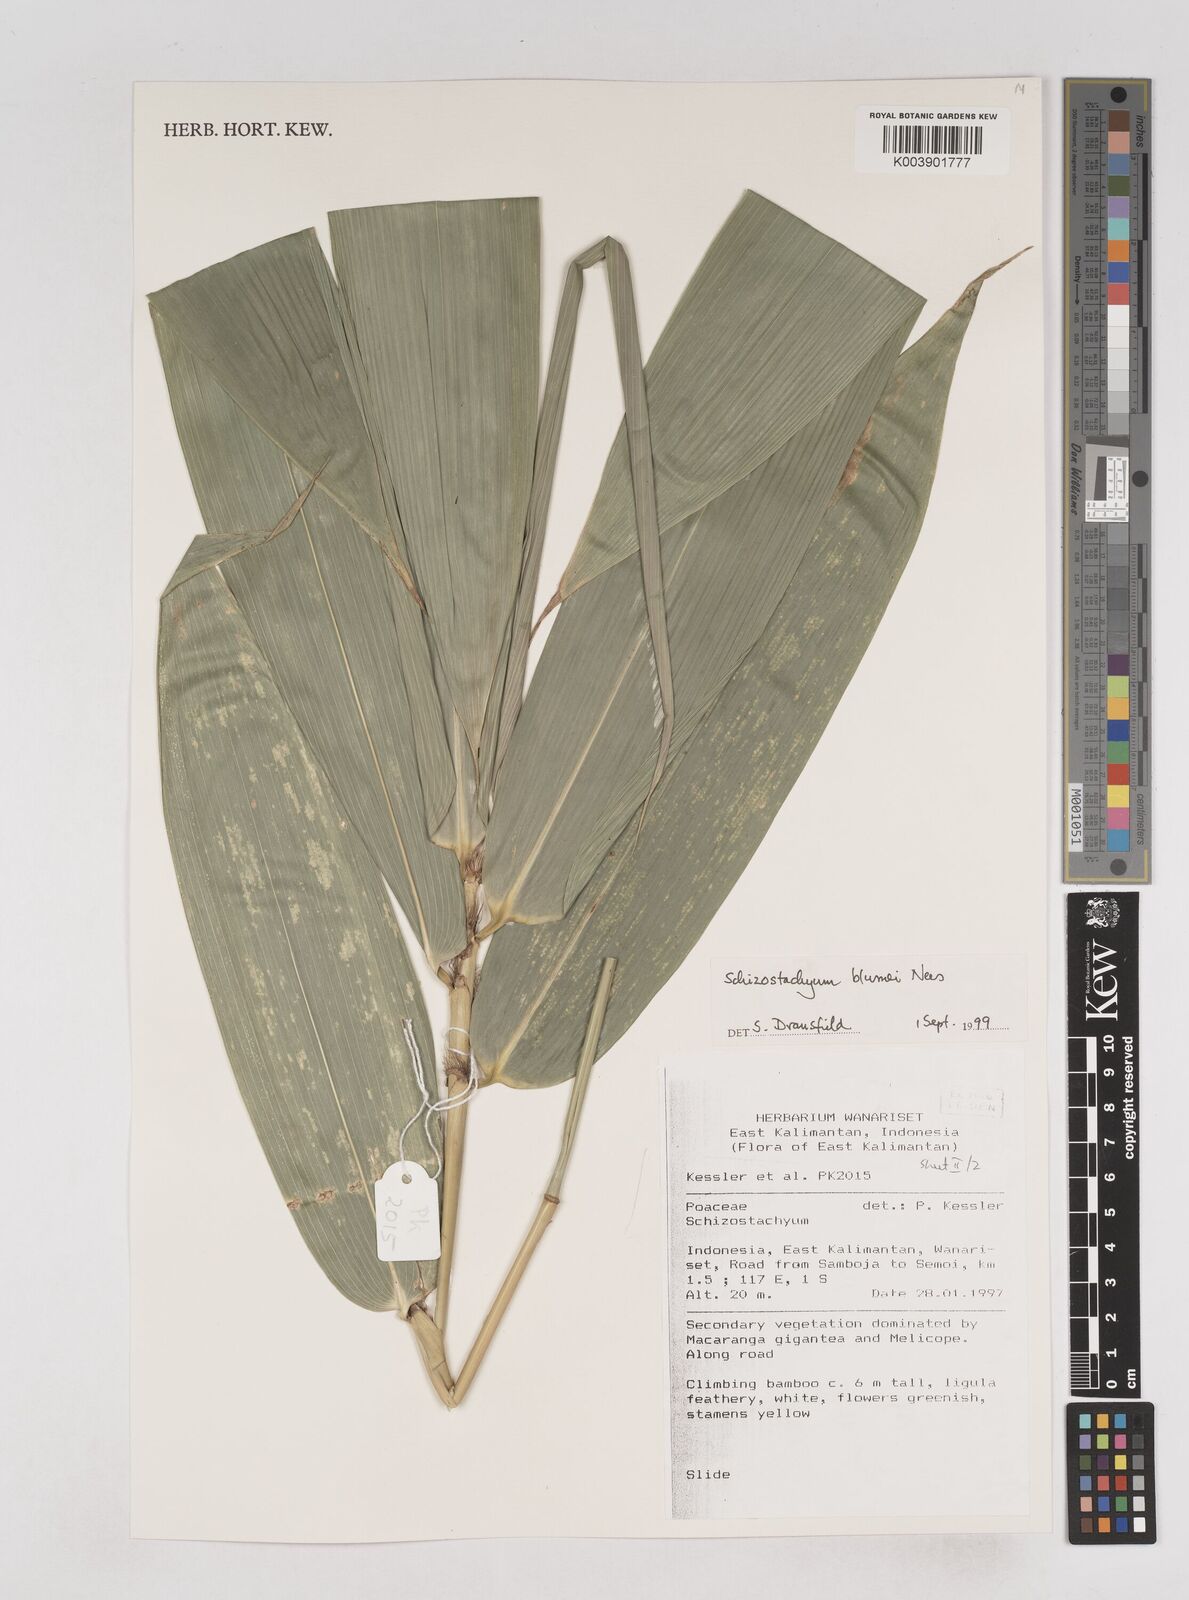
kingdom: Plantae
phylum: Tracheophyta
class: Liliopsida
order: Poales
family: Poaceae
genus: Schizostachyum
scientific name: Schizostachyum blumei
